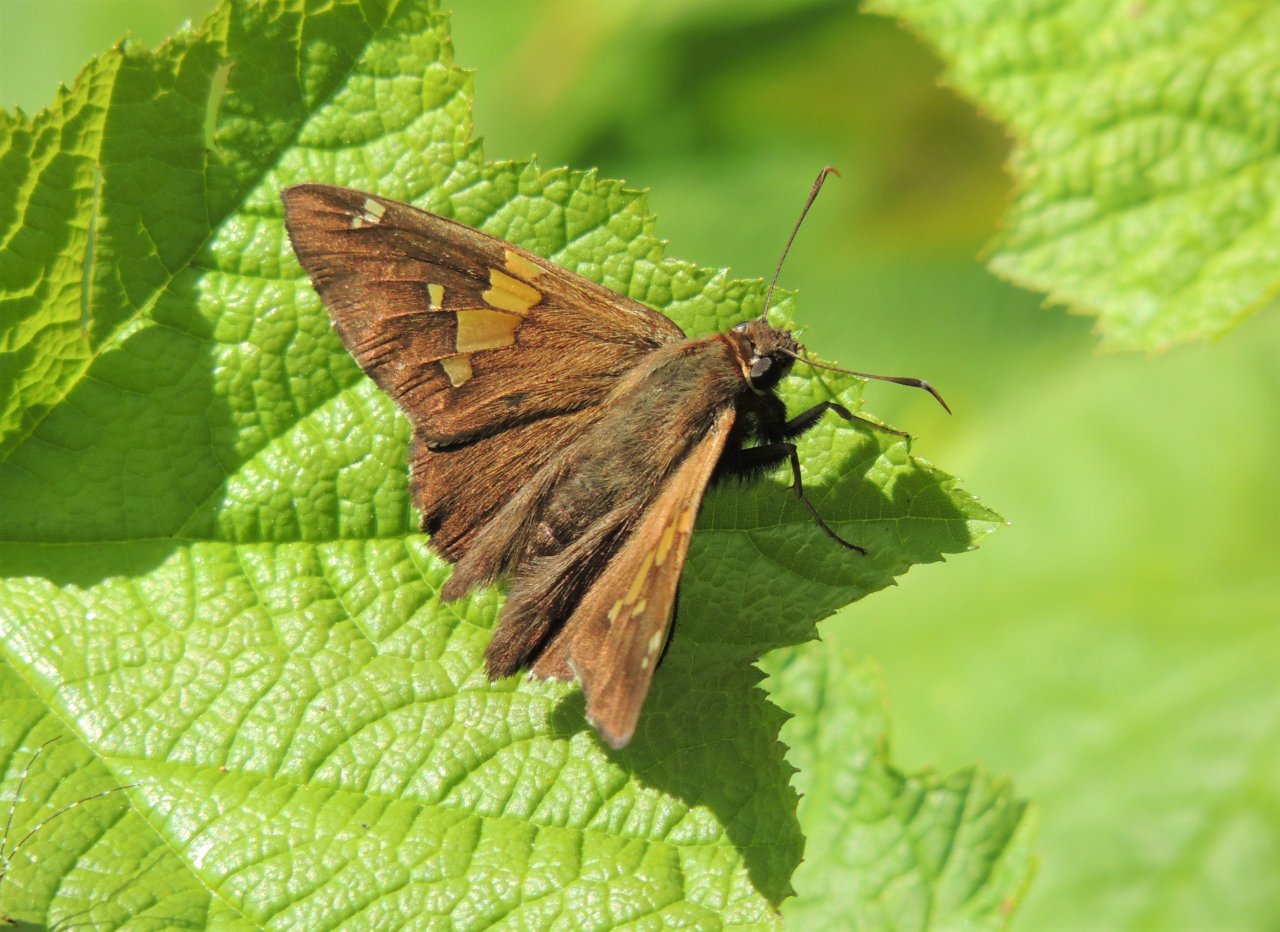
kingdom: Animalia
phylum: Arthropoda
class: Insecta
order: Lepidoptera
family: Hesperiidae
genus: Epargyreus
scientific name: Epargyreus clarus
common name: Silver-spotted Skipper
